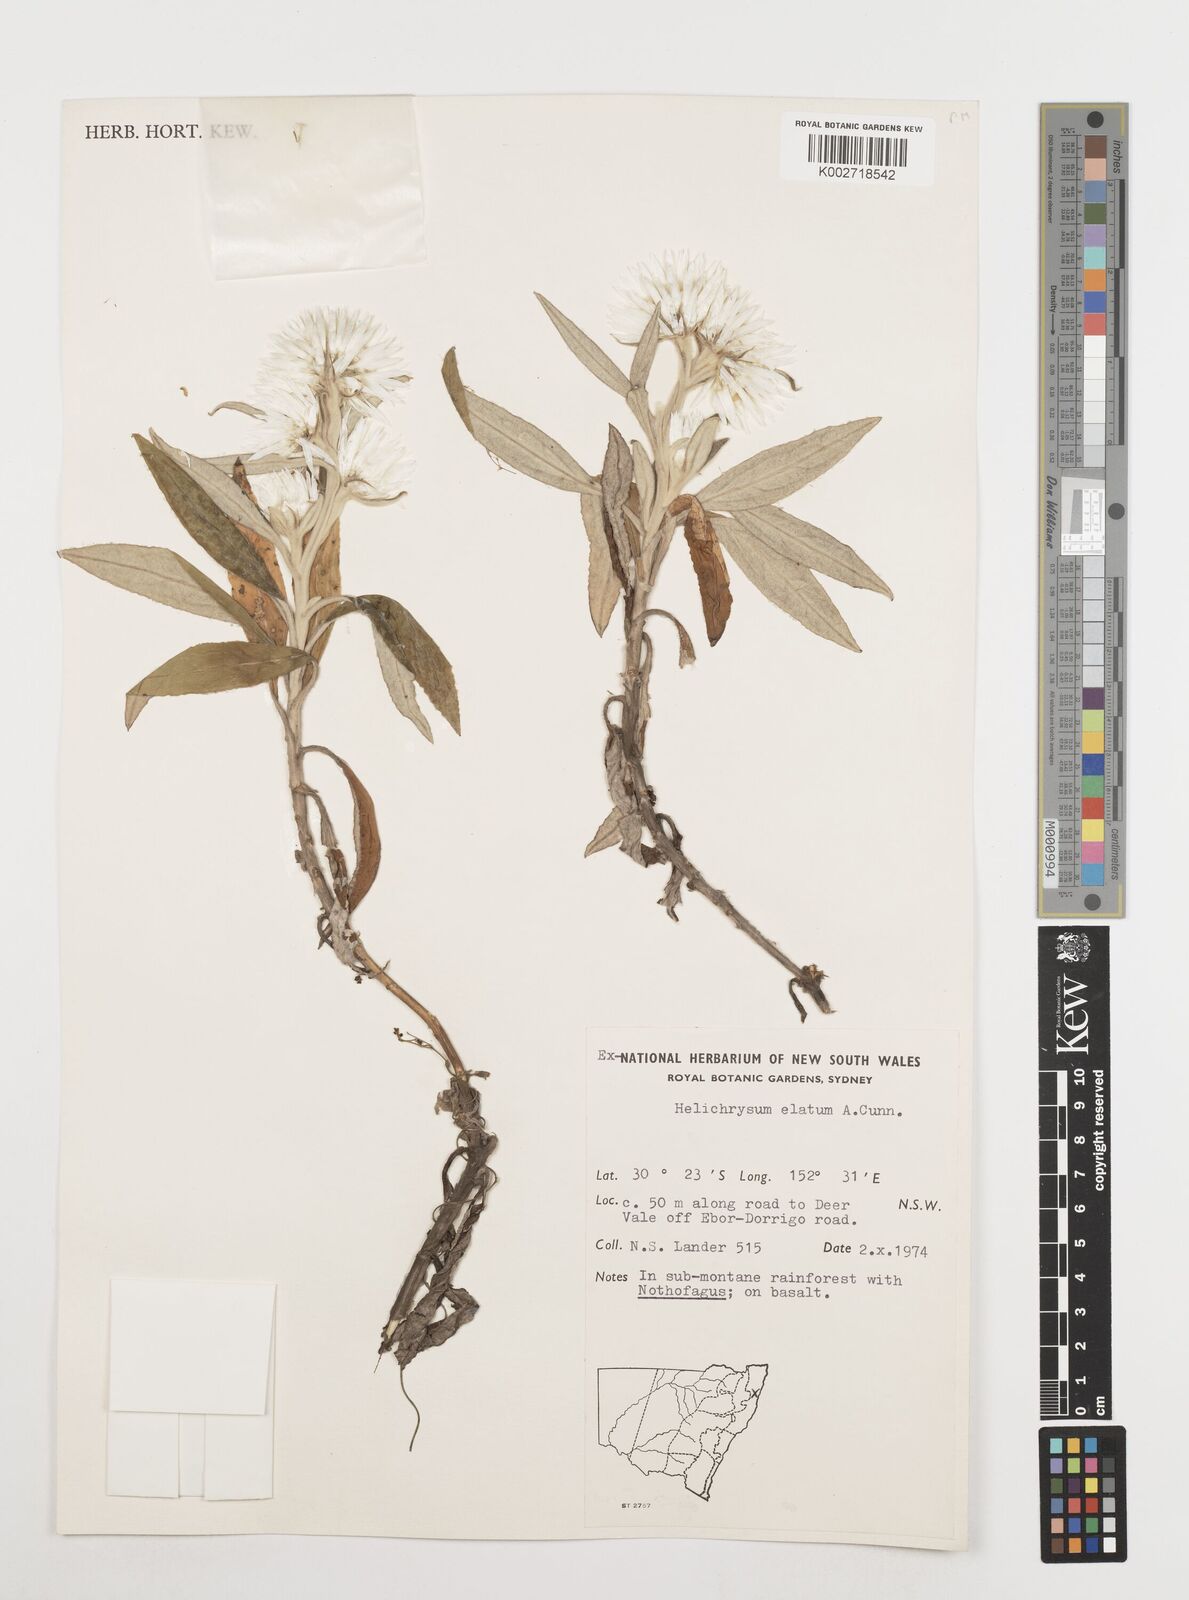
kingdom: Plantae
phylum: Tracheophyta
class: Magnoliopsida
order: Asterales
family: Asteraceae
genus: Leucozoma
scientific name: Leucozoma elatum
